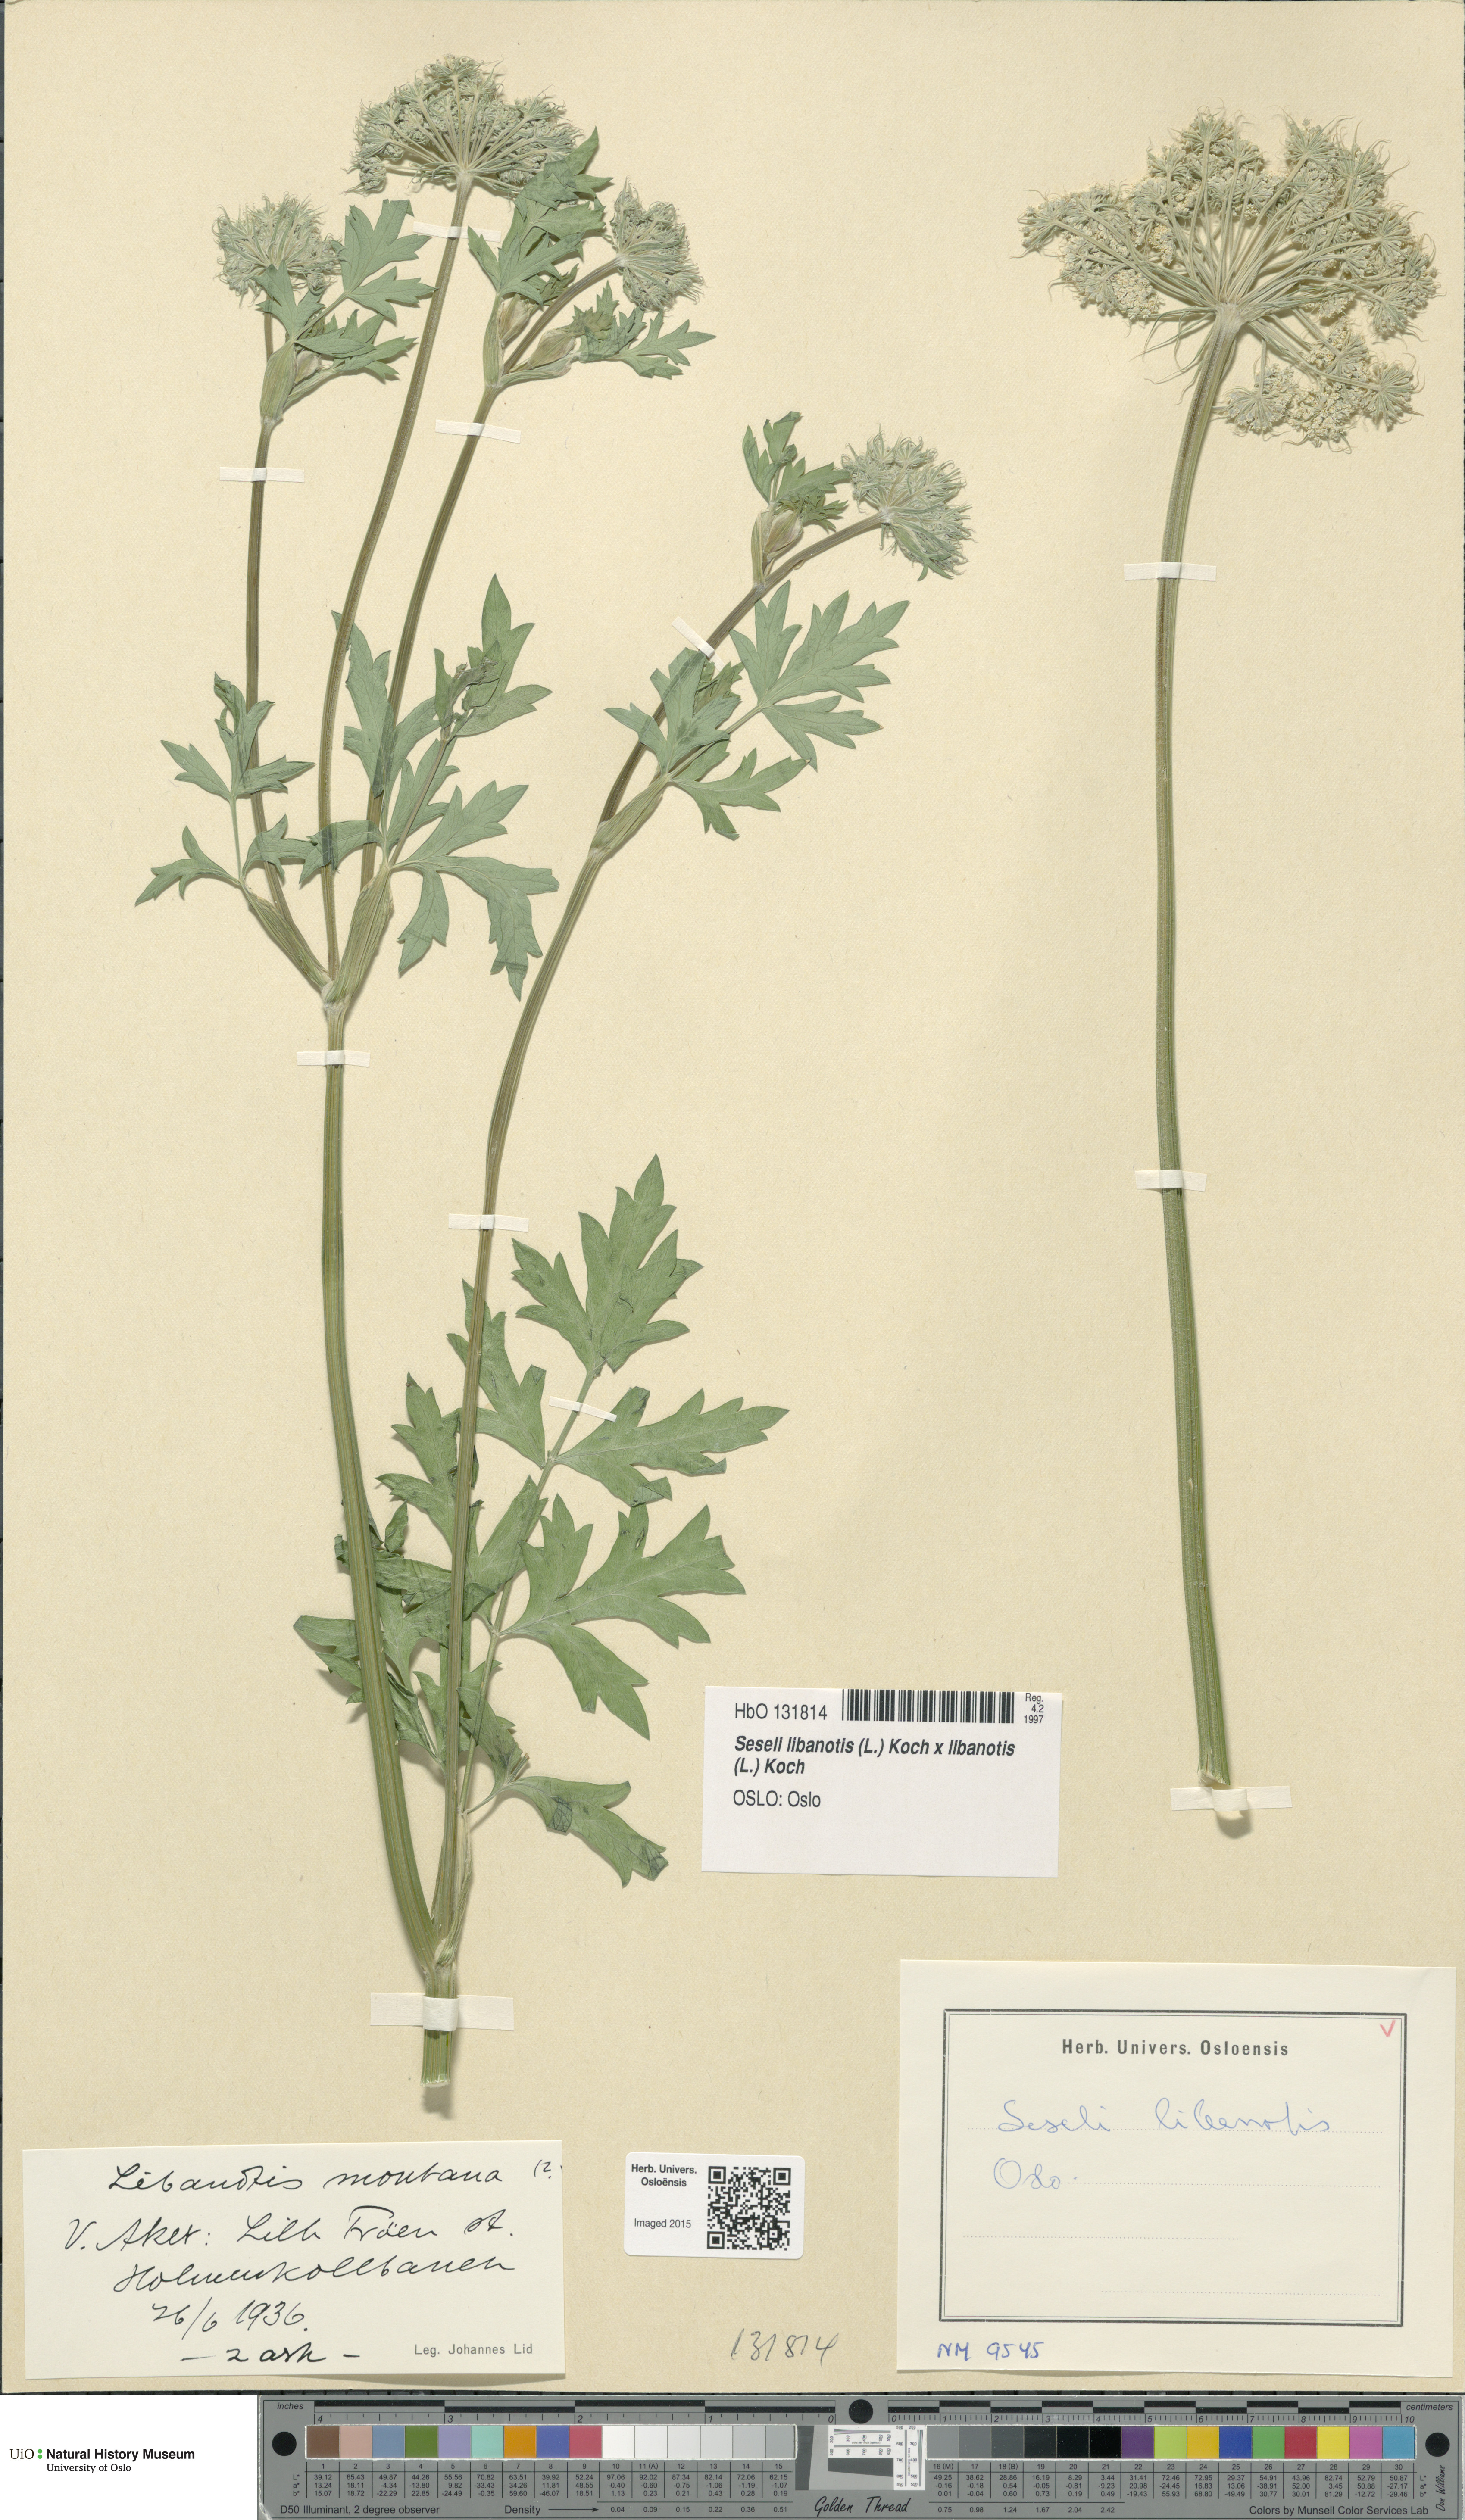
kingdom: Plantae
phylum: Tracheophyta
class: Magnoliopsida
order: Apiales
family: Apiaceae
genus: Seseli
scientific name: Seseli
